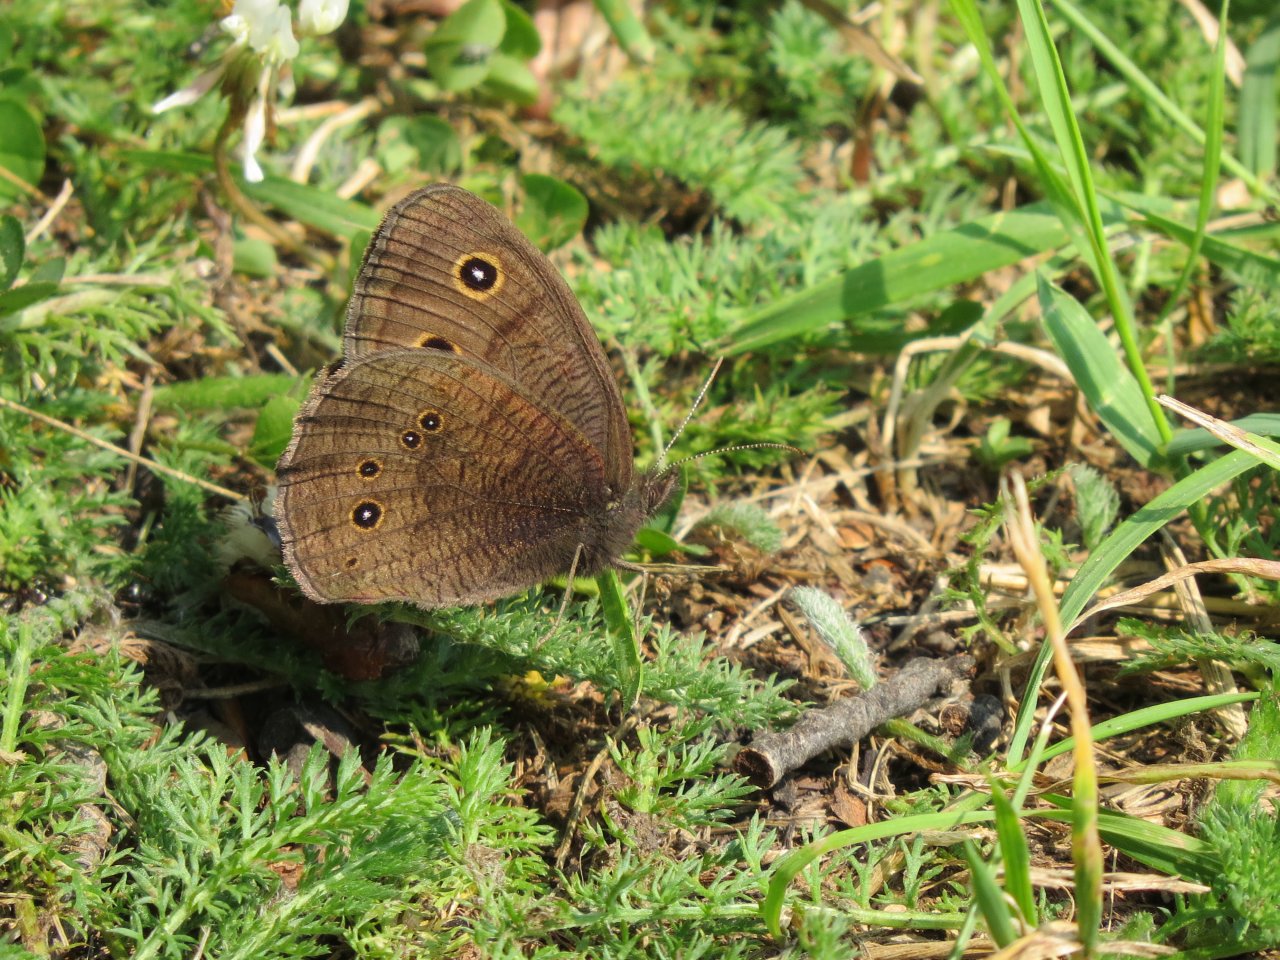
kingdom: Animalia
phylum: Arthropoda
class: Insecta
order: Lepidoptera
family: Nymphalidae
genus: Cercyonis
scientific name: Cercyonis pegala
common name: Common Wood-Nymph
